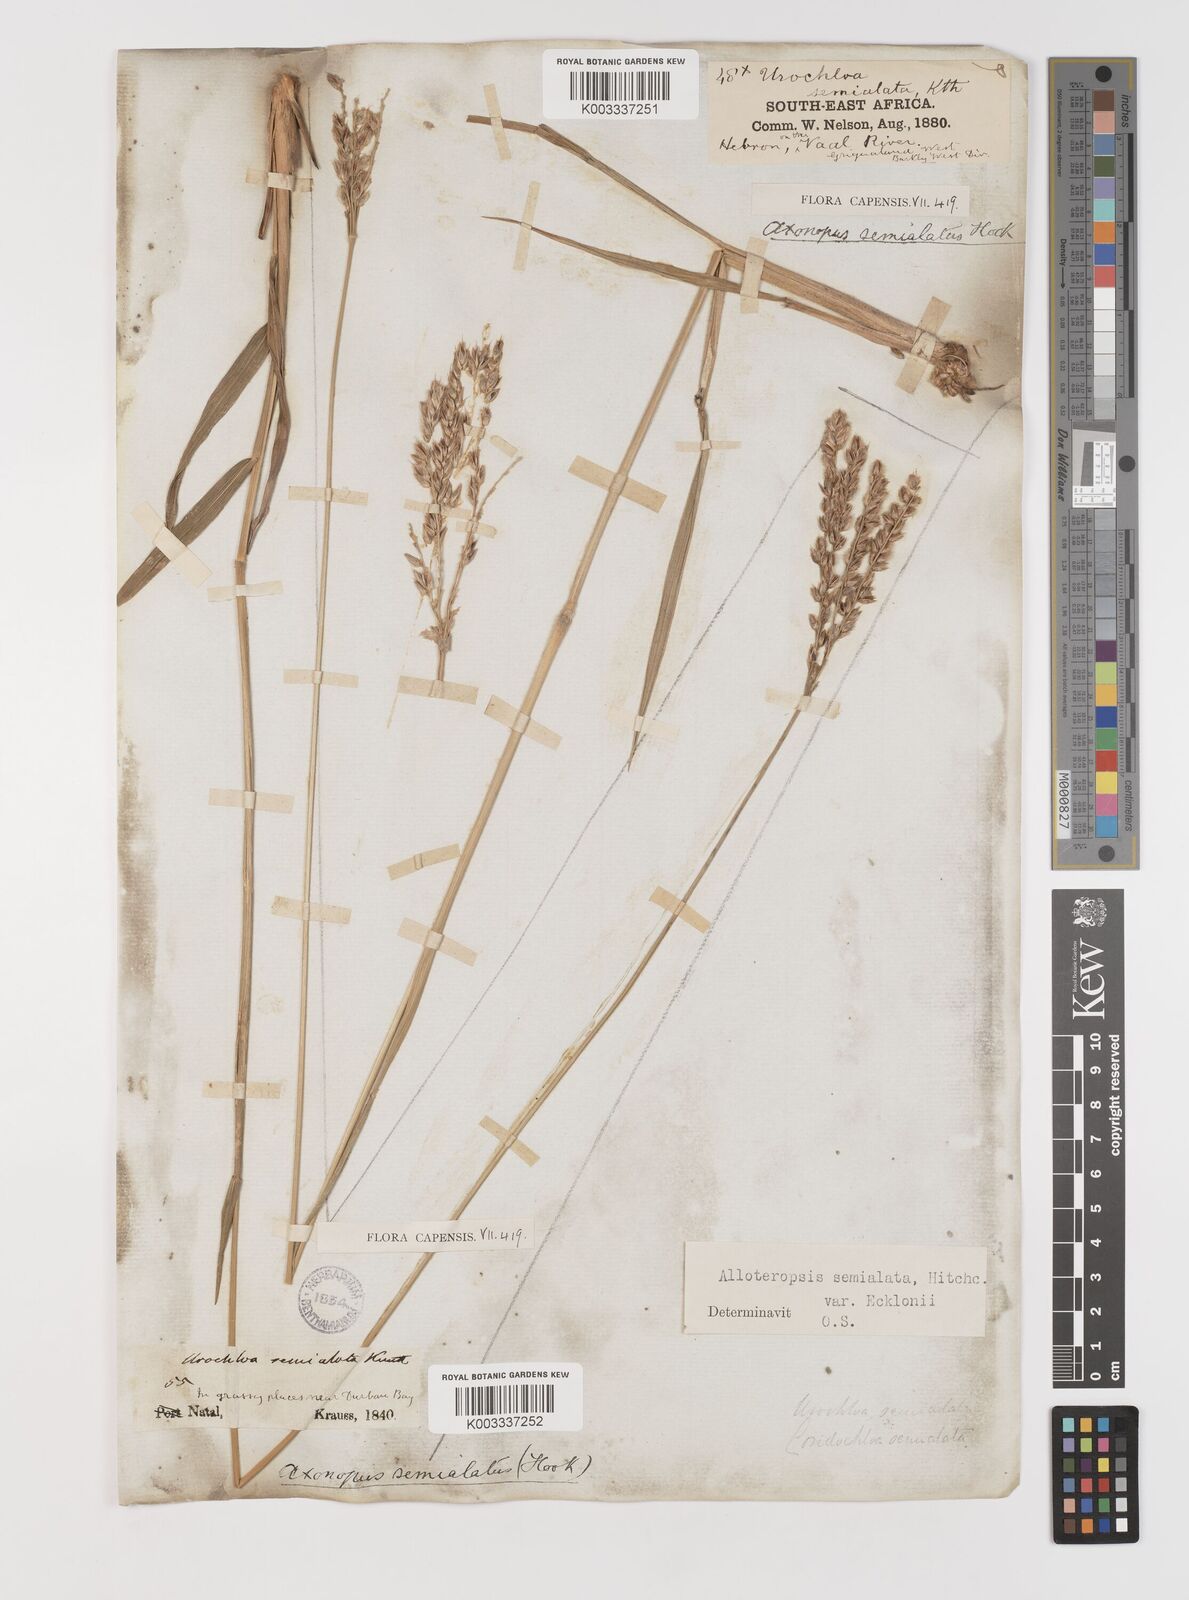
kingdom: Plantae
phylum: Tracheophyta
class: Liliopsida
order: Poales
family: Poaceae
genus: Alloteropsis
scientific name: Alloteropsis semialata
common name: Cockatoo grass
